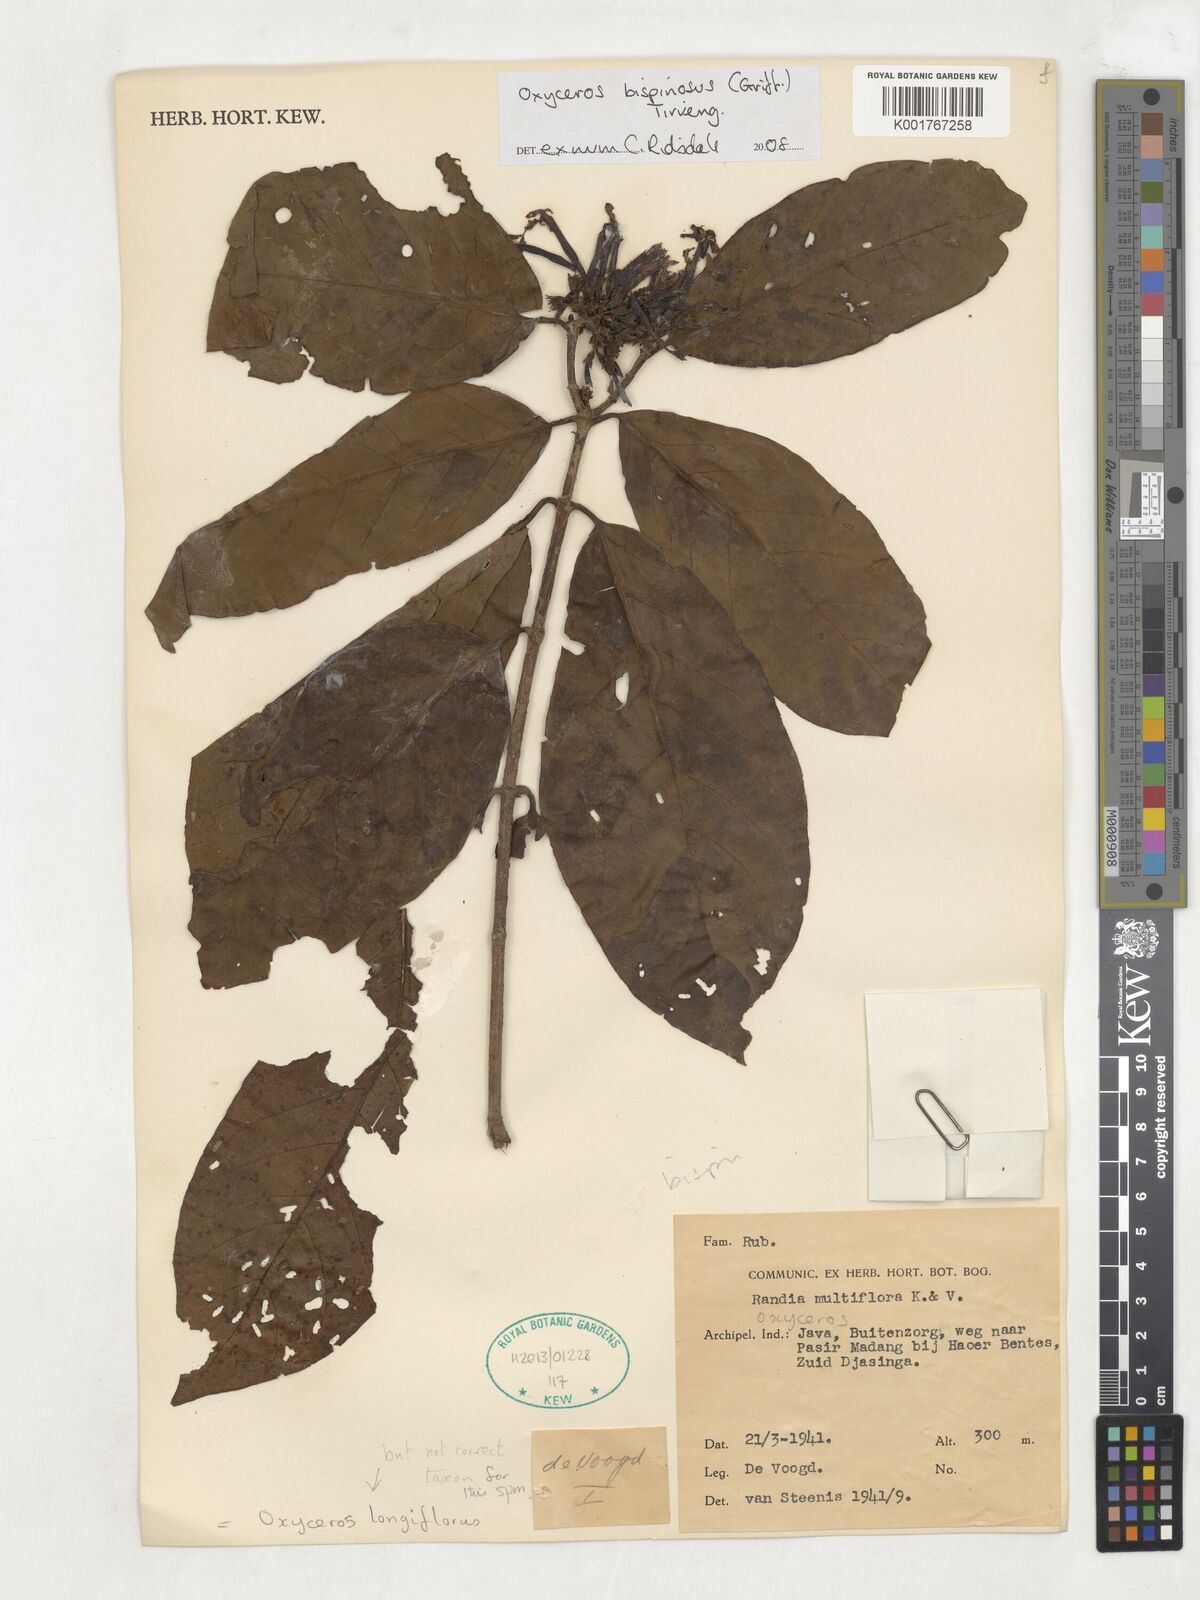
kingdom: Plantae
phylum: Tracheophyta
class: Magnoliopsida
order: Gentianales
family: Rubiaceae
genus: Oxyceros
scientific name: Oxyceros bispinosus
